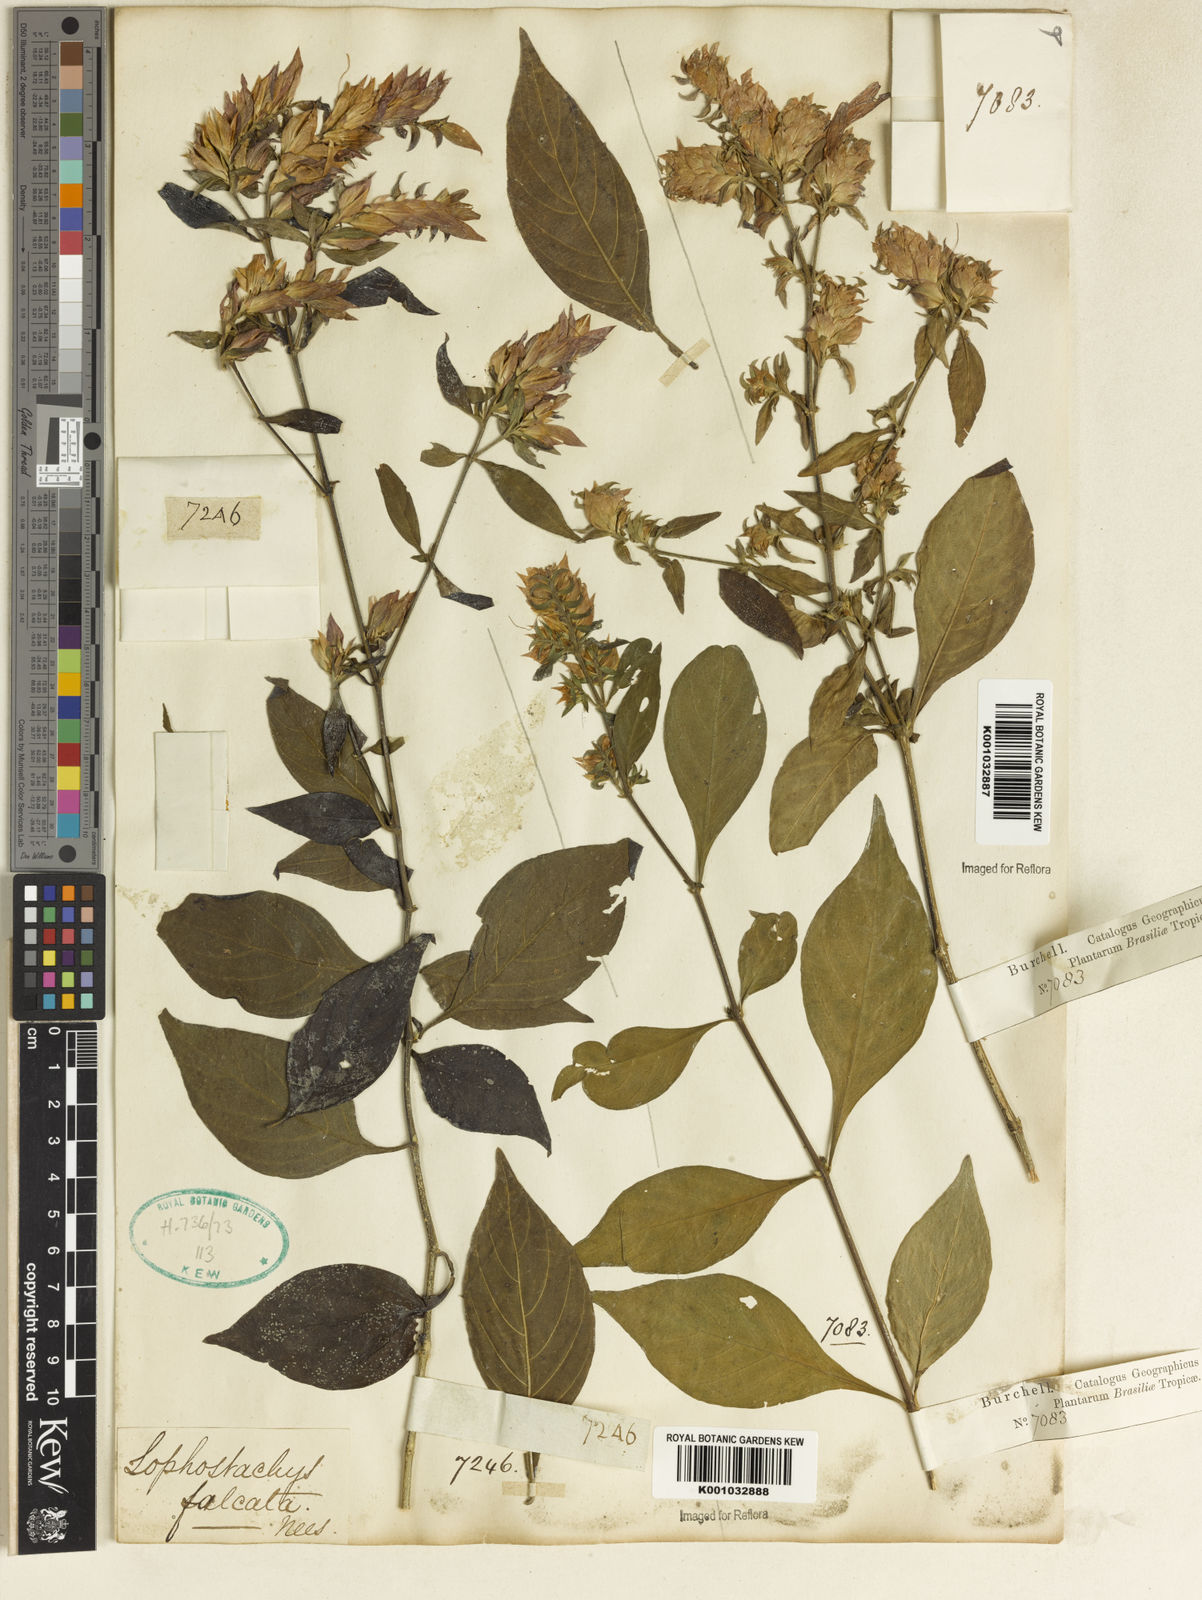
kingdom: Plantae
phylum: Tracheophyta
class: Magnoliopsida
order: Lamiales
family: Acanthaceae
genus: Lepidagathis
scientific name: Lepidagathis floribunda
